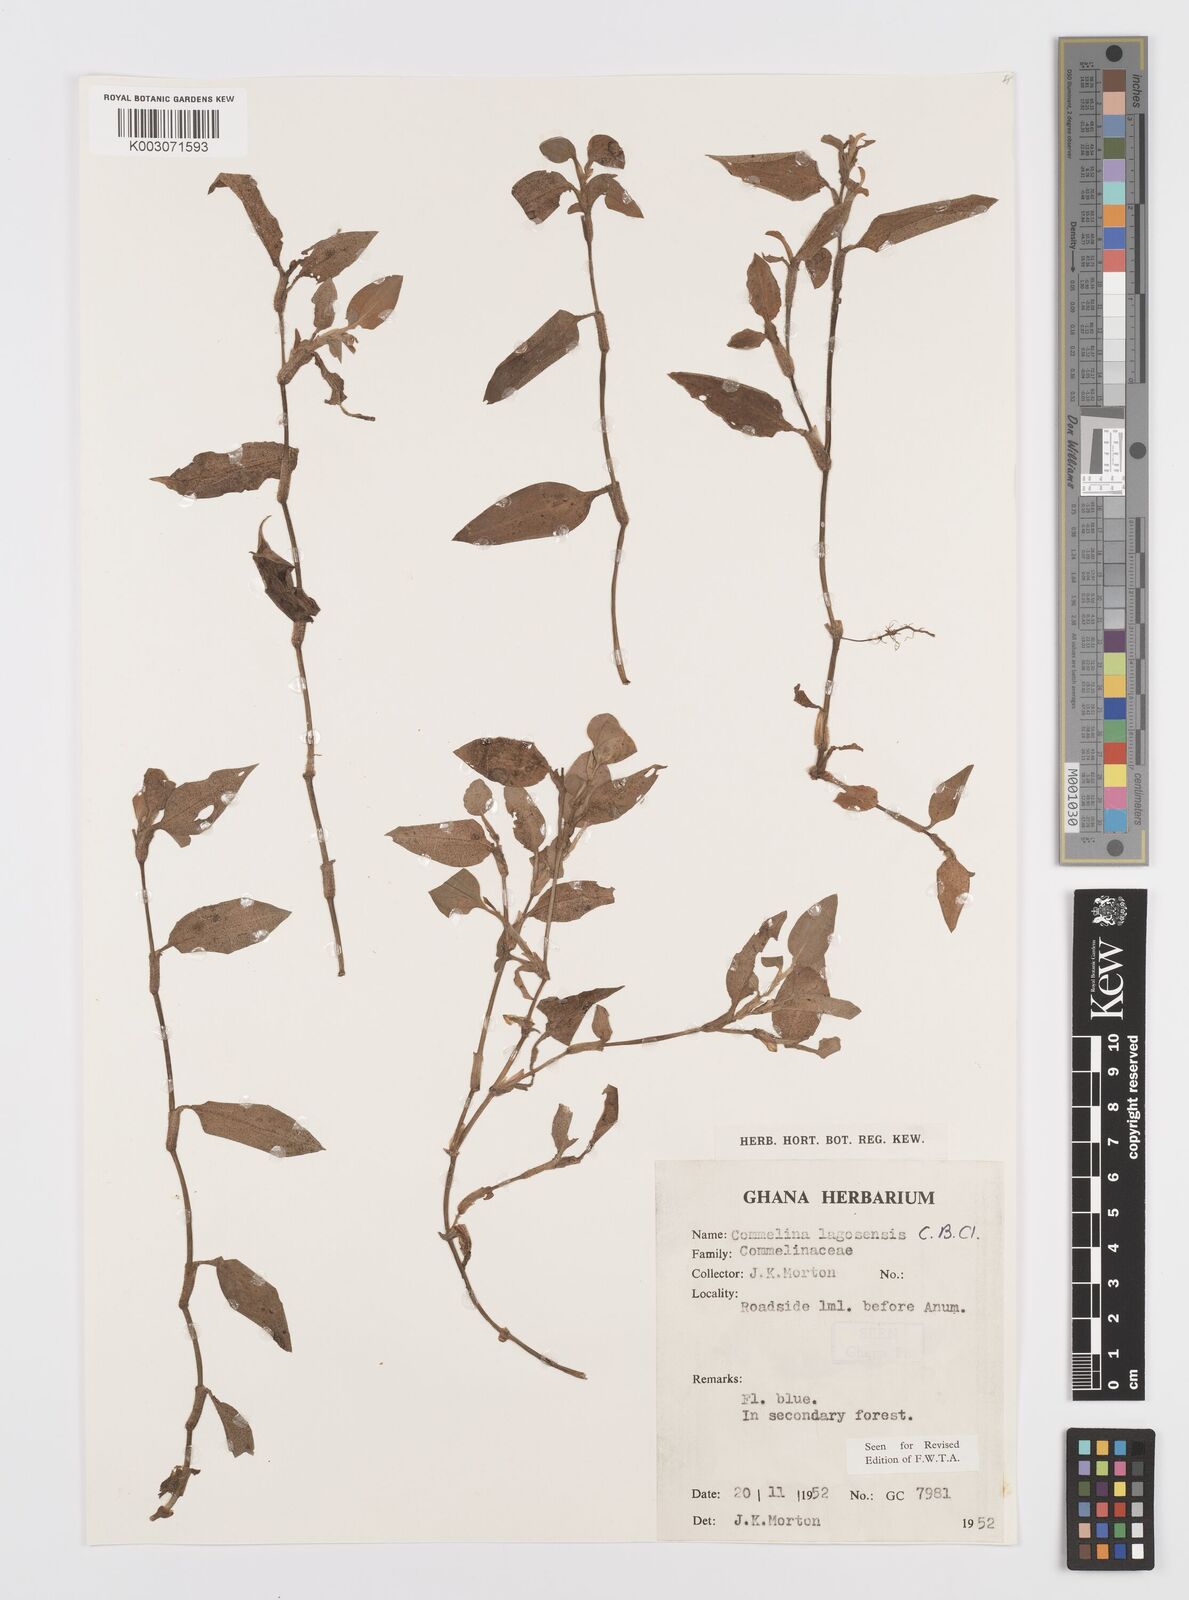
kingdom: Plantae
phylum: Tracheophyta
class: Liliopsida
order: Commelinales
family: Commelinaceae
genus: Commelina
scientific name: Commelina bracteosa
